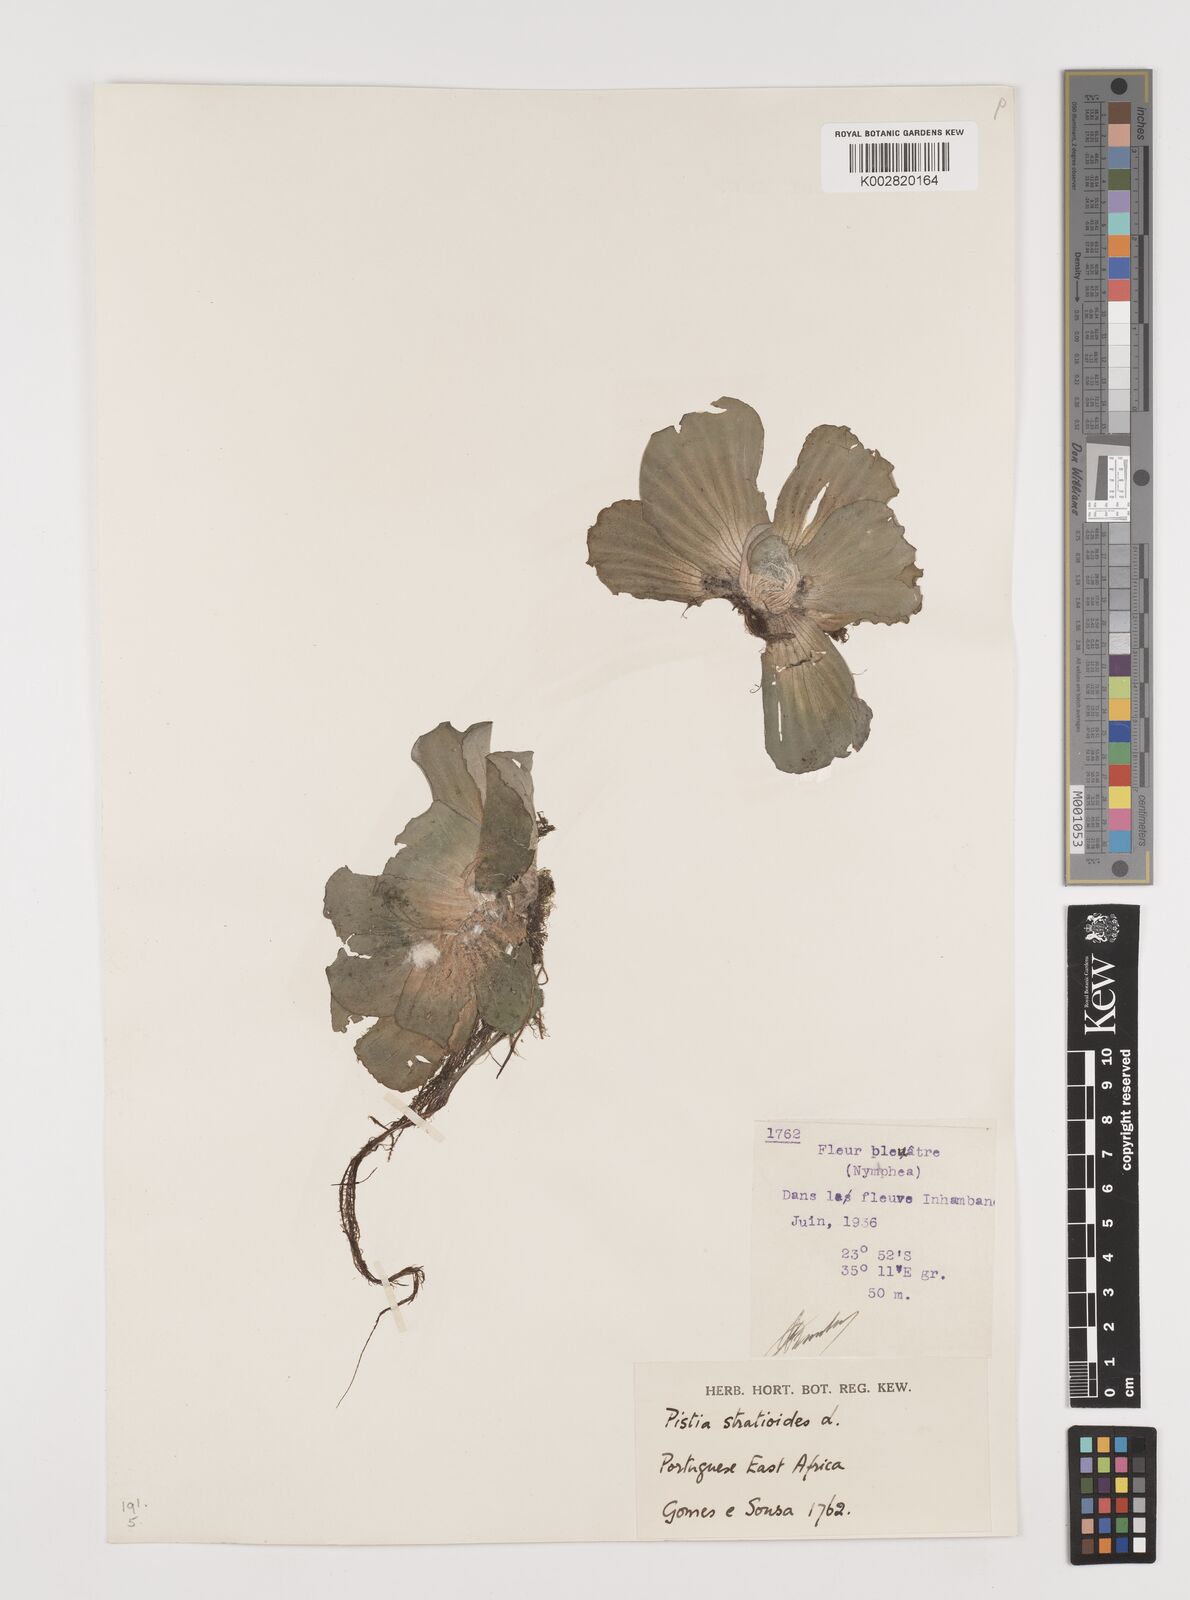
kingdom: Plantae
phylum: Tracheophyta
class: Liliopsida
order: Alismatales
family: Araceae
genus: Pistia
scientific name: Pistia stratiotes
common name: Water lettuce
